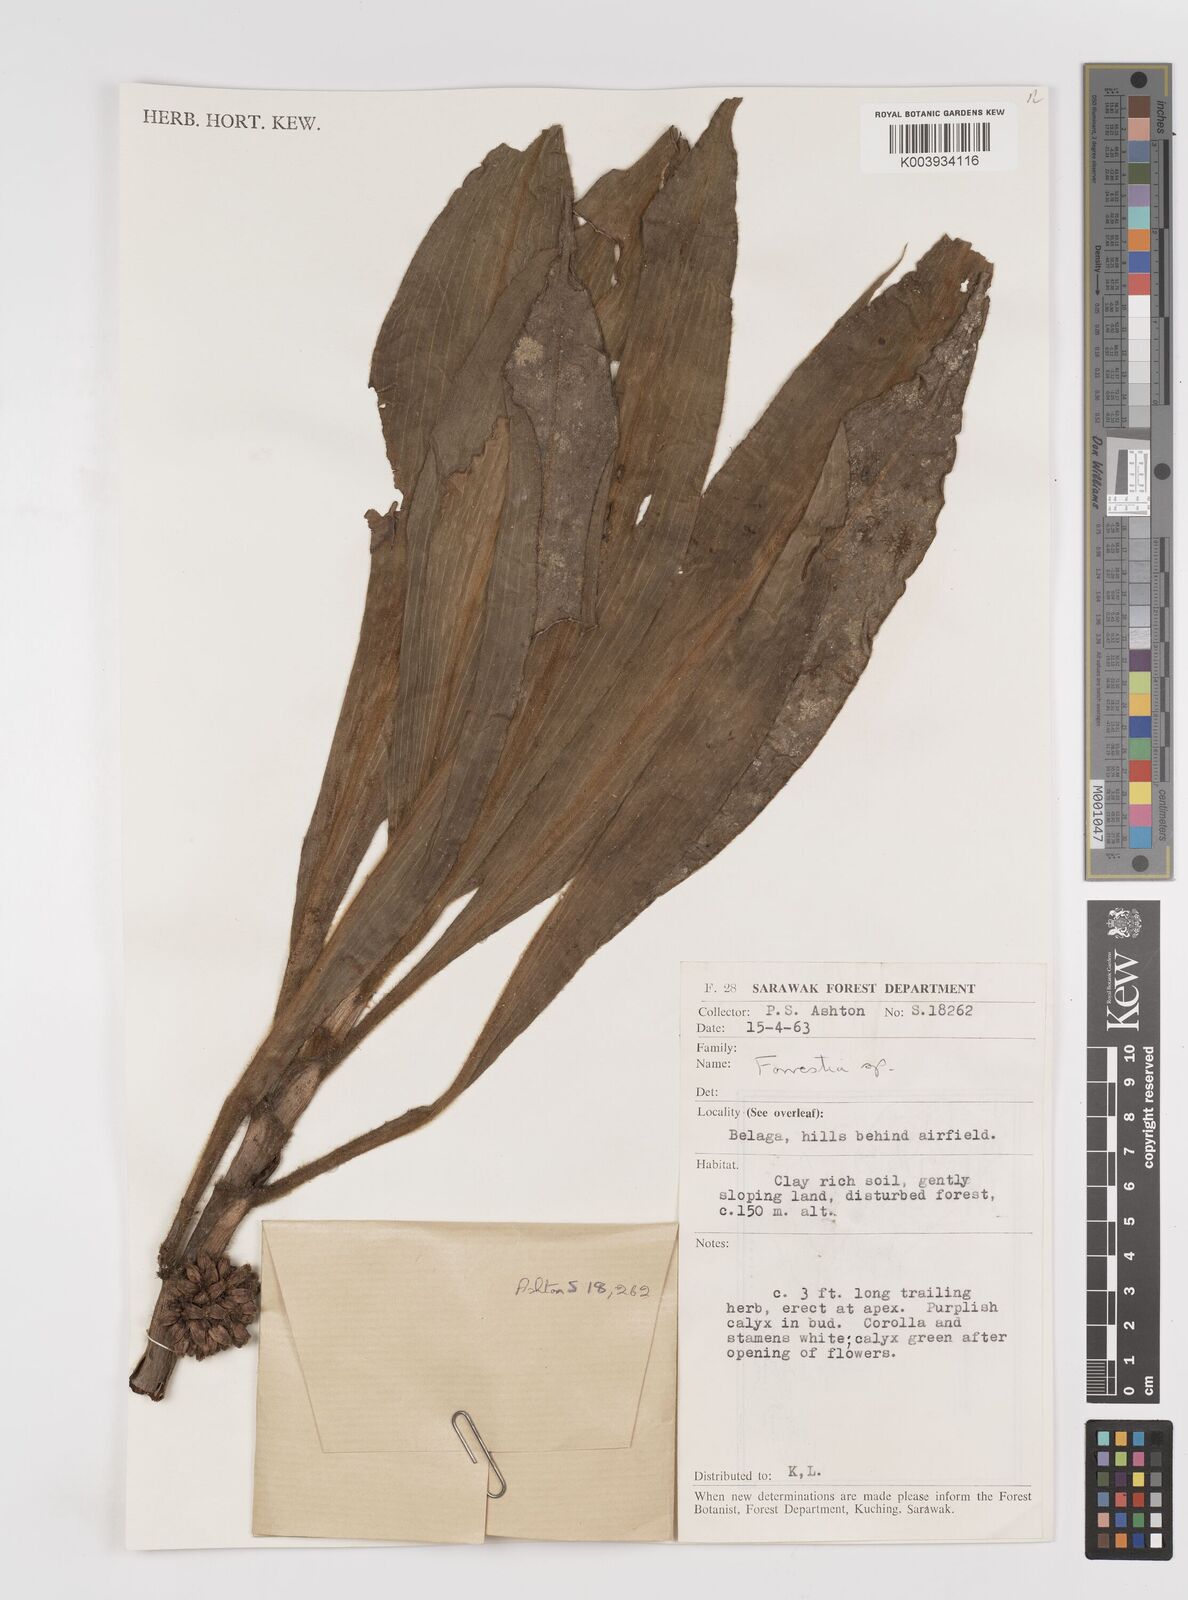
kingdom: Plantae
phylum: Tracheophyta
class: Liliopsida
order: Commelinales
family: Commelinaceae
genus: Amischotolype
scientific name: Amischotolype
